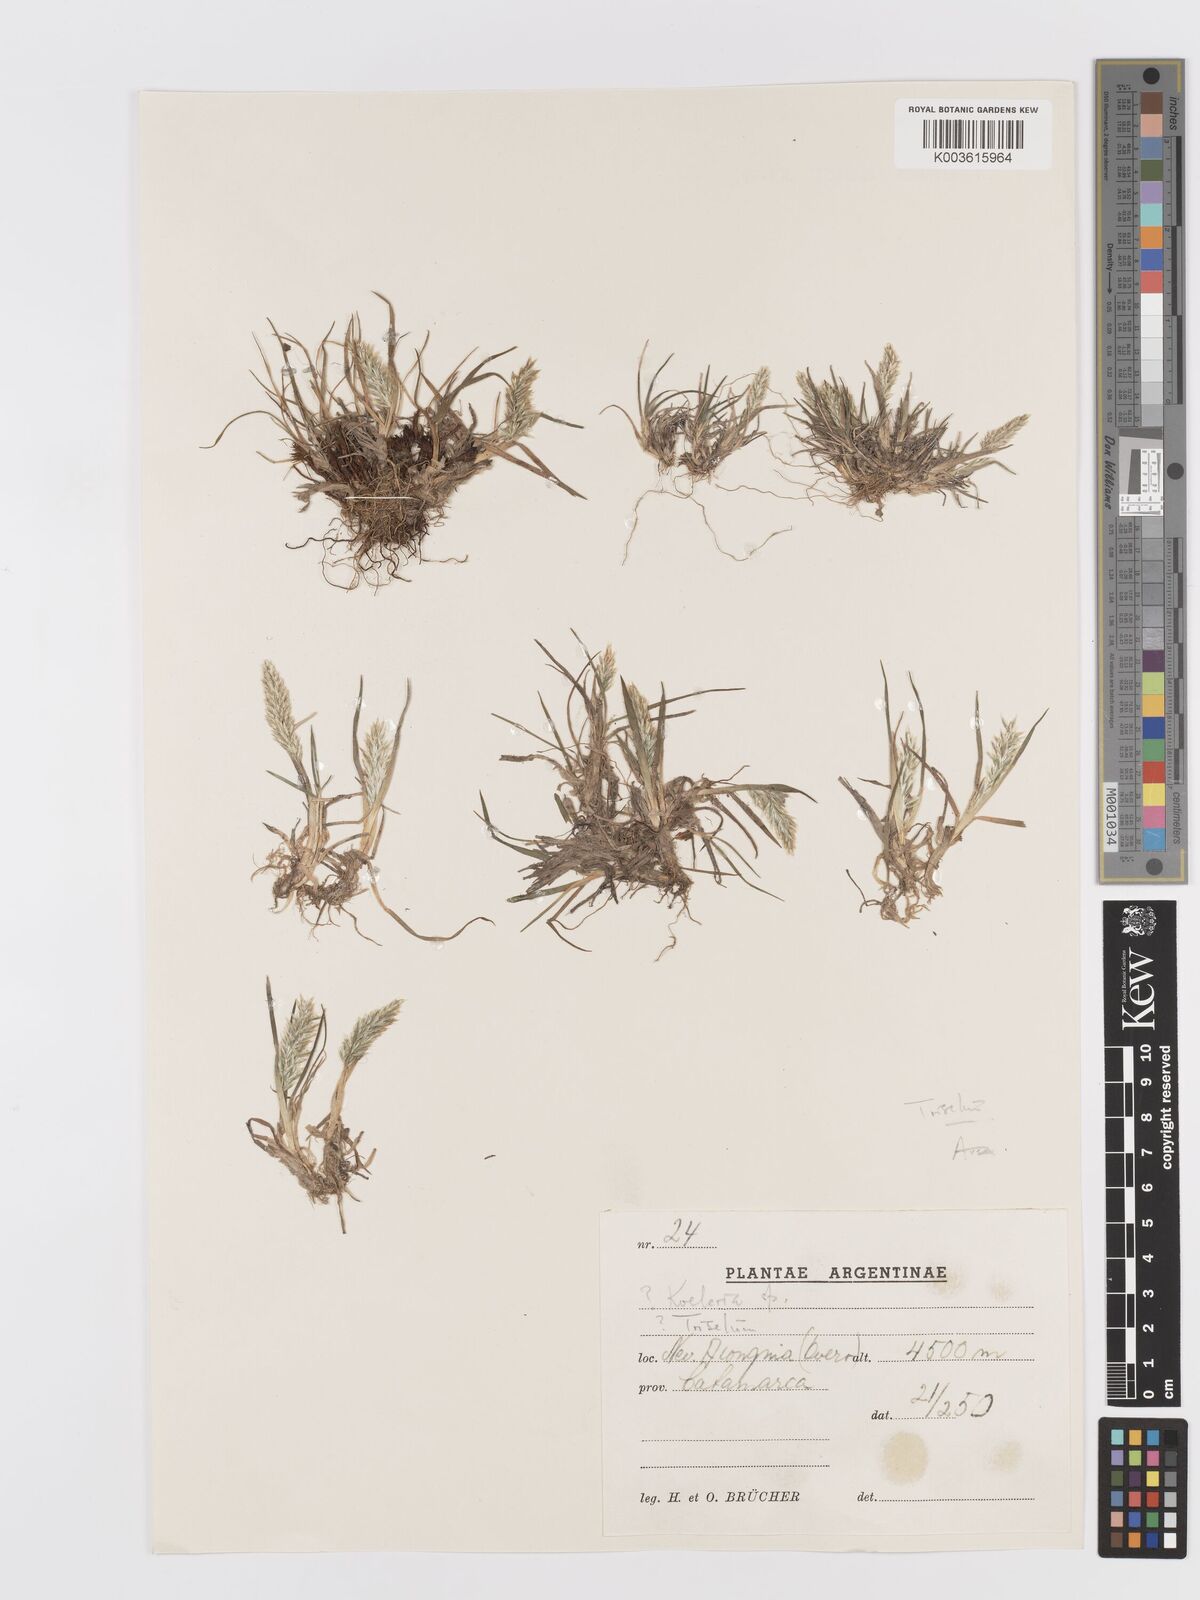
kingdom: Plantae
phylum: Tracheophyta
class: Liliopsida
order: Poales
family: Poaceae
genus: Trisetum
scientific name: Trisetum
